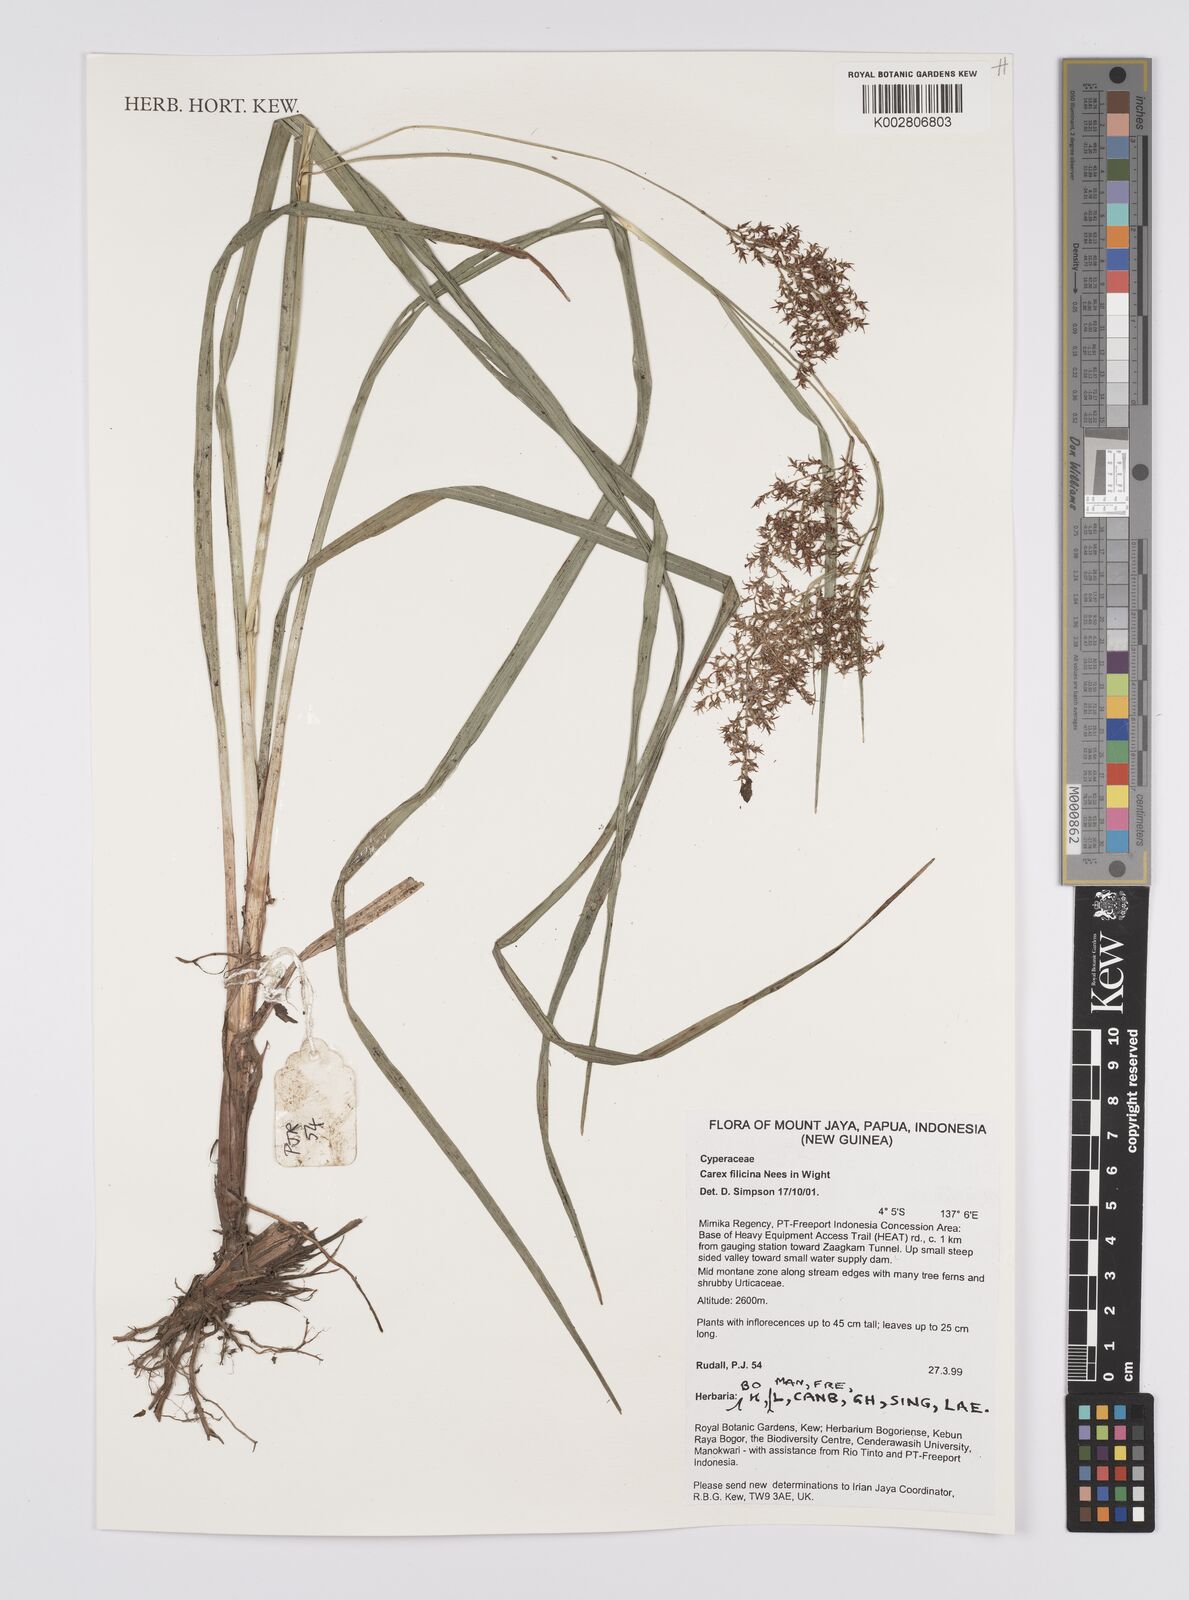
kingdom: Plantae
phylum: Tracheophyta
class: Liliopsida
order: Poales
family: Cyperaceae
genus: Carex
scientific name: Carex filicina
